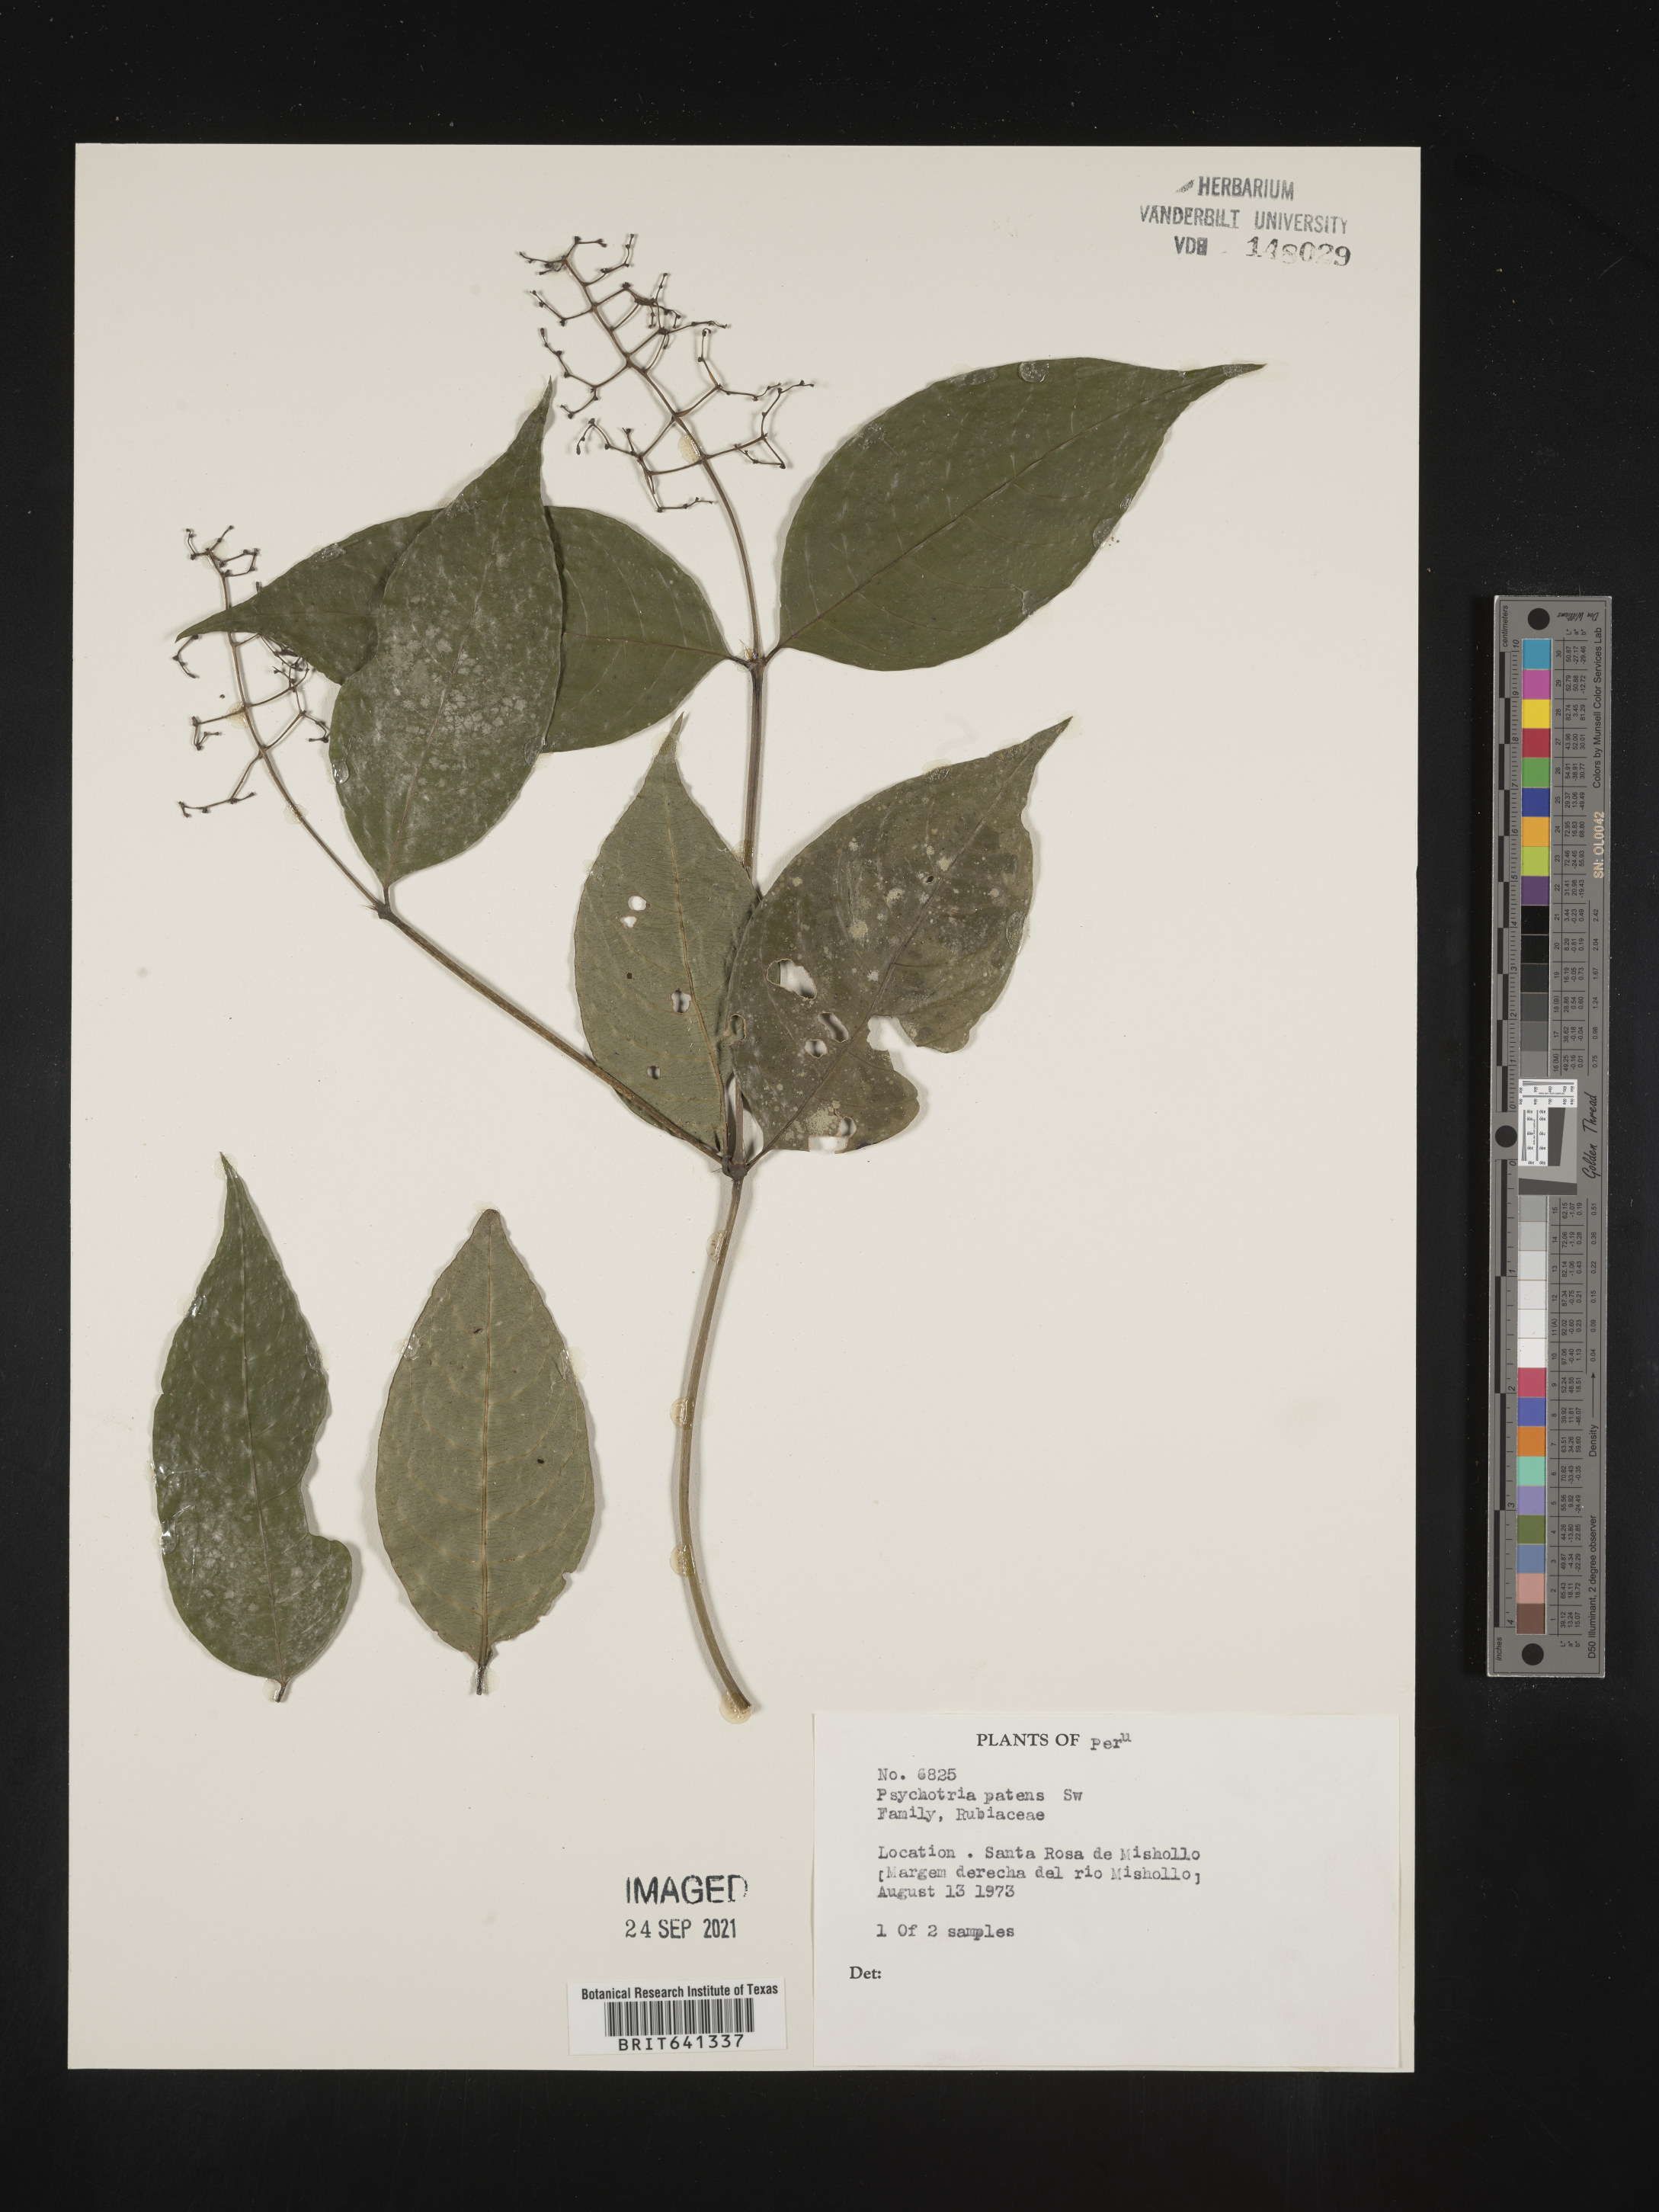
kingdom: Plantae
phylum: Tracheophyta
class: Magnoliopsida
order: Gentianales
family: Rubiaceae
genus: Psychotria
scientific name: Psychotria
